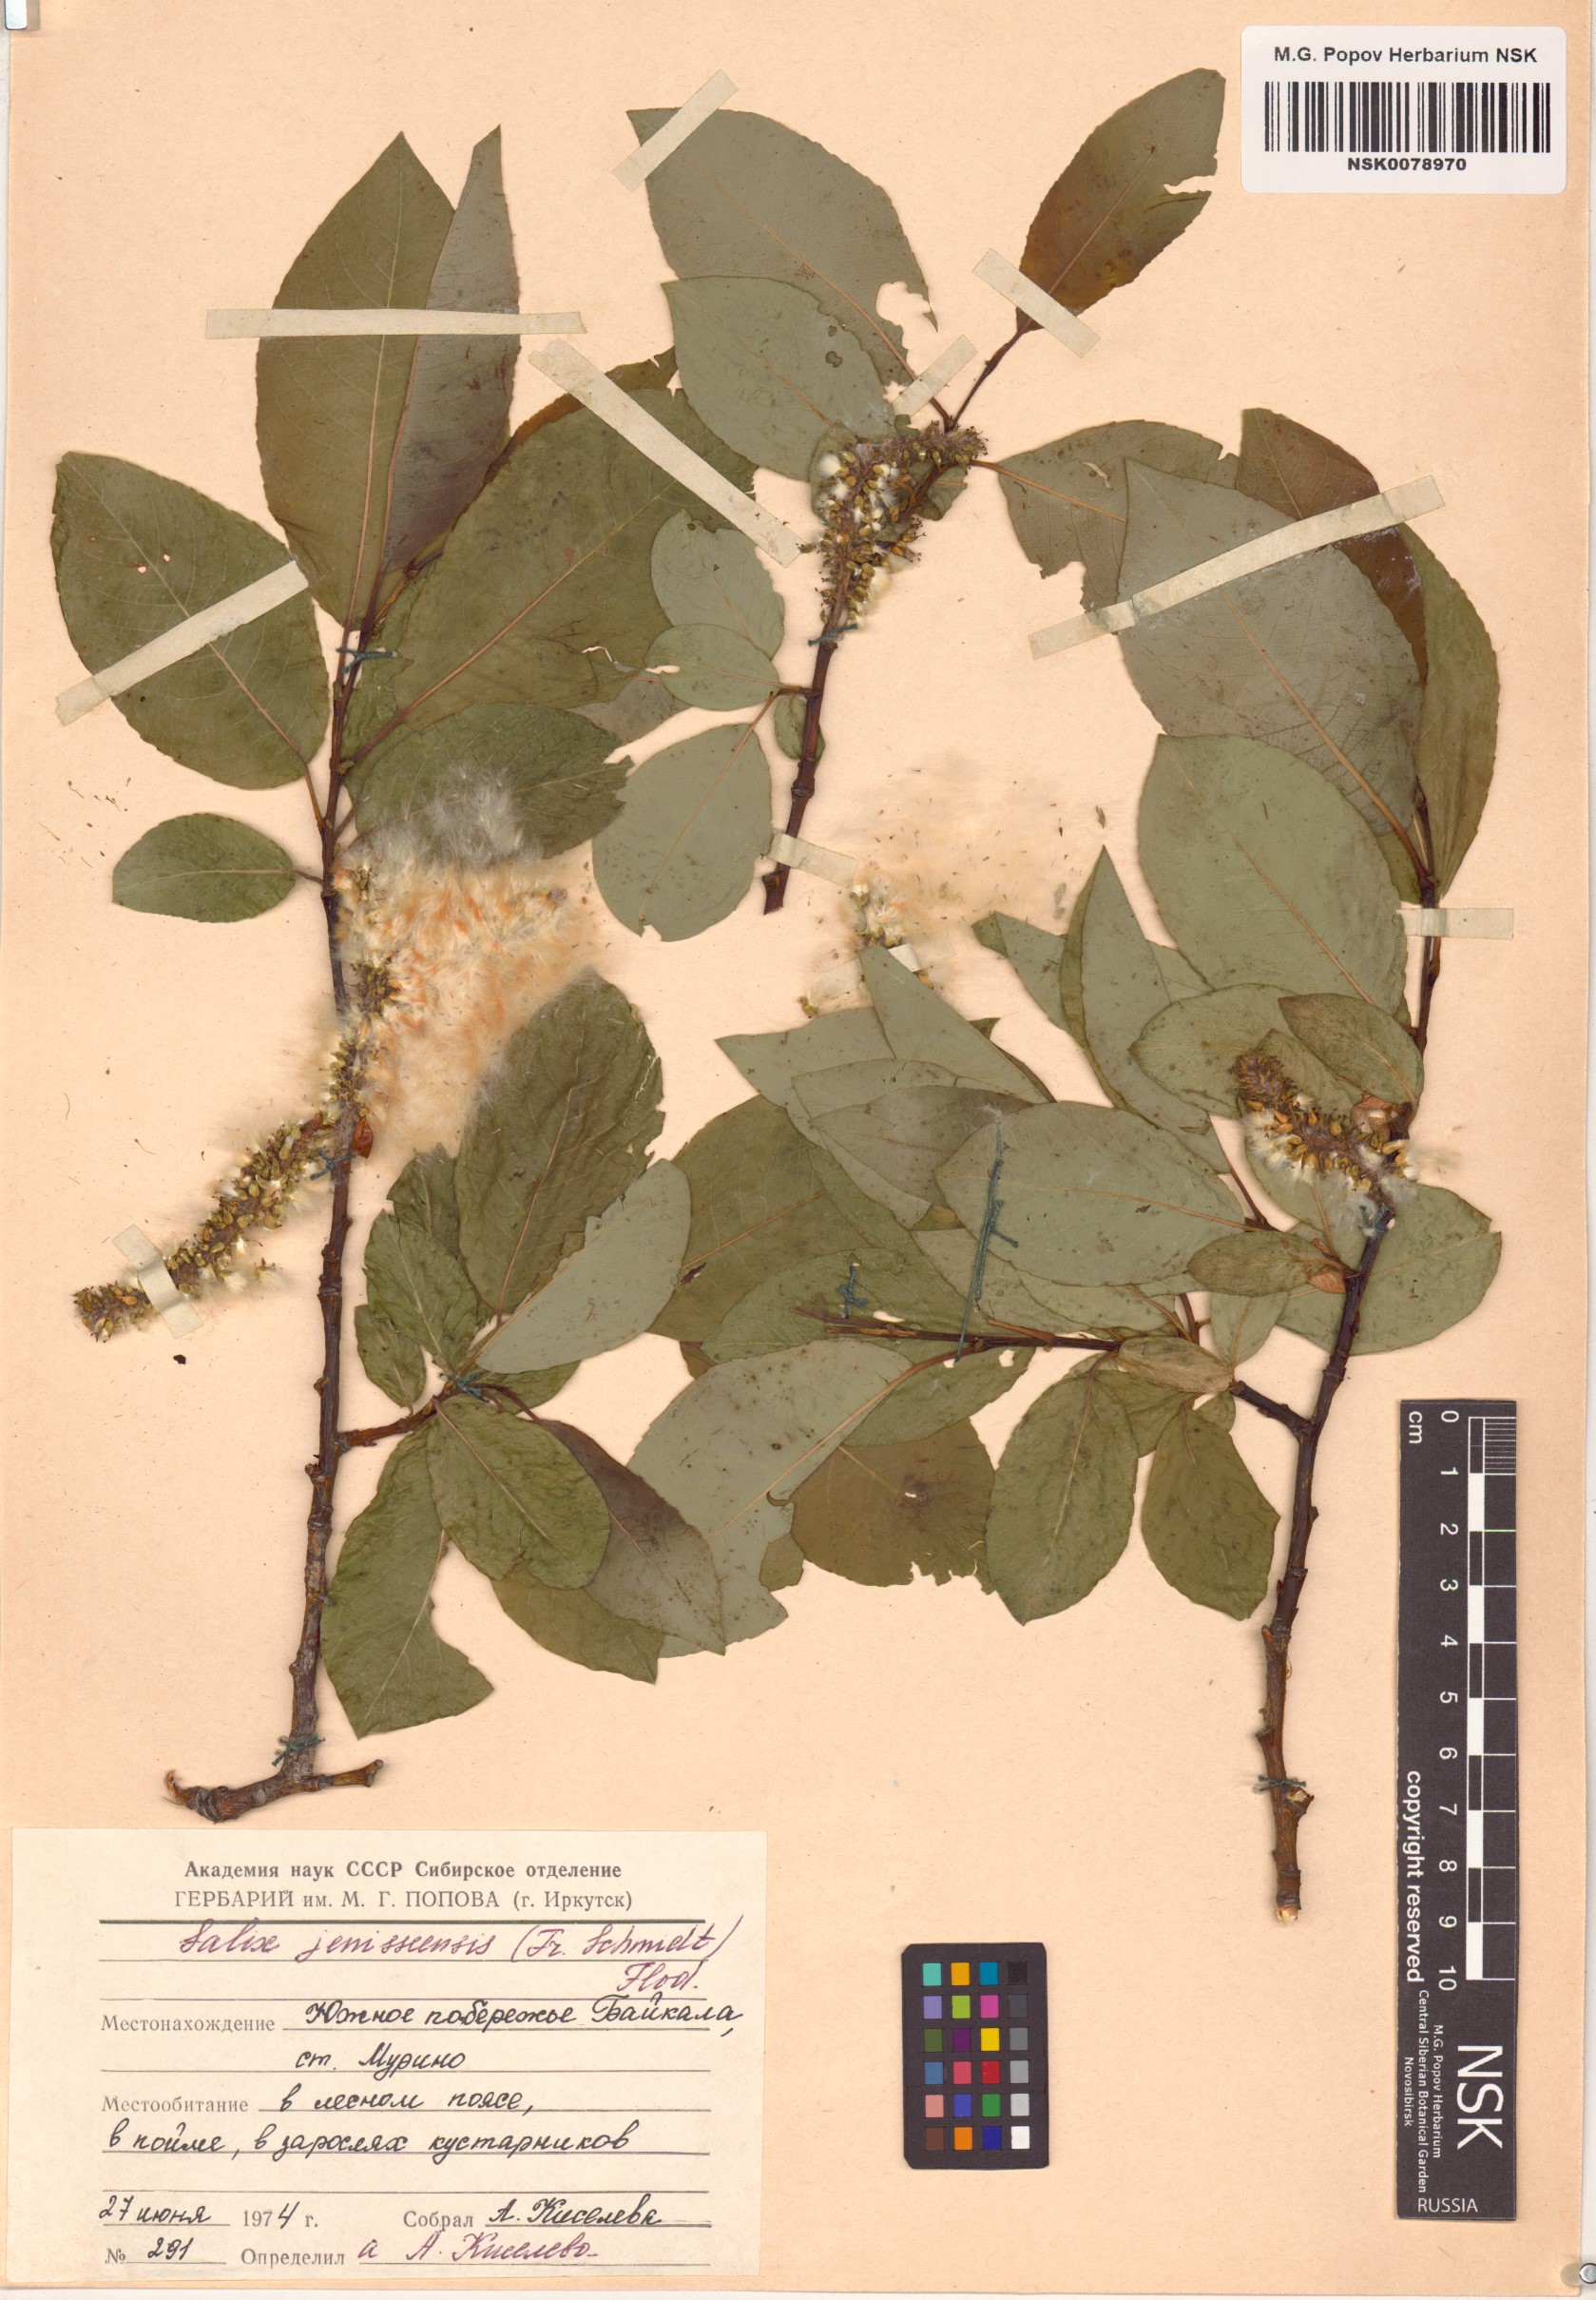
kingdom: Plantae
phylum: Tracheophyta
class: Magnoliopsida
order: Malpighiales
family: Salicaceae
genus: Salix
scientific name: Salix jenisseensis
